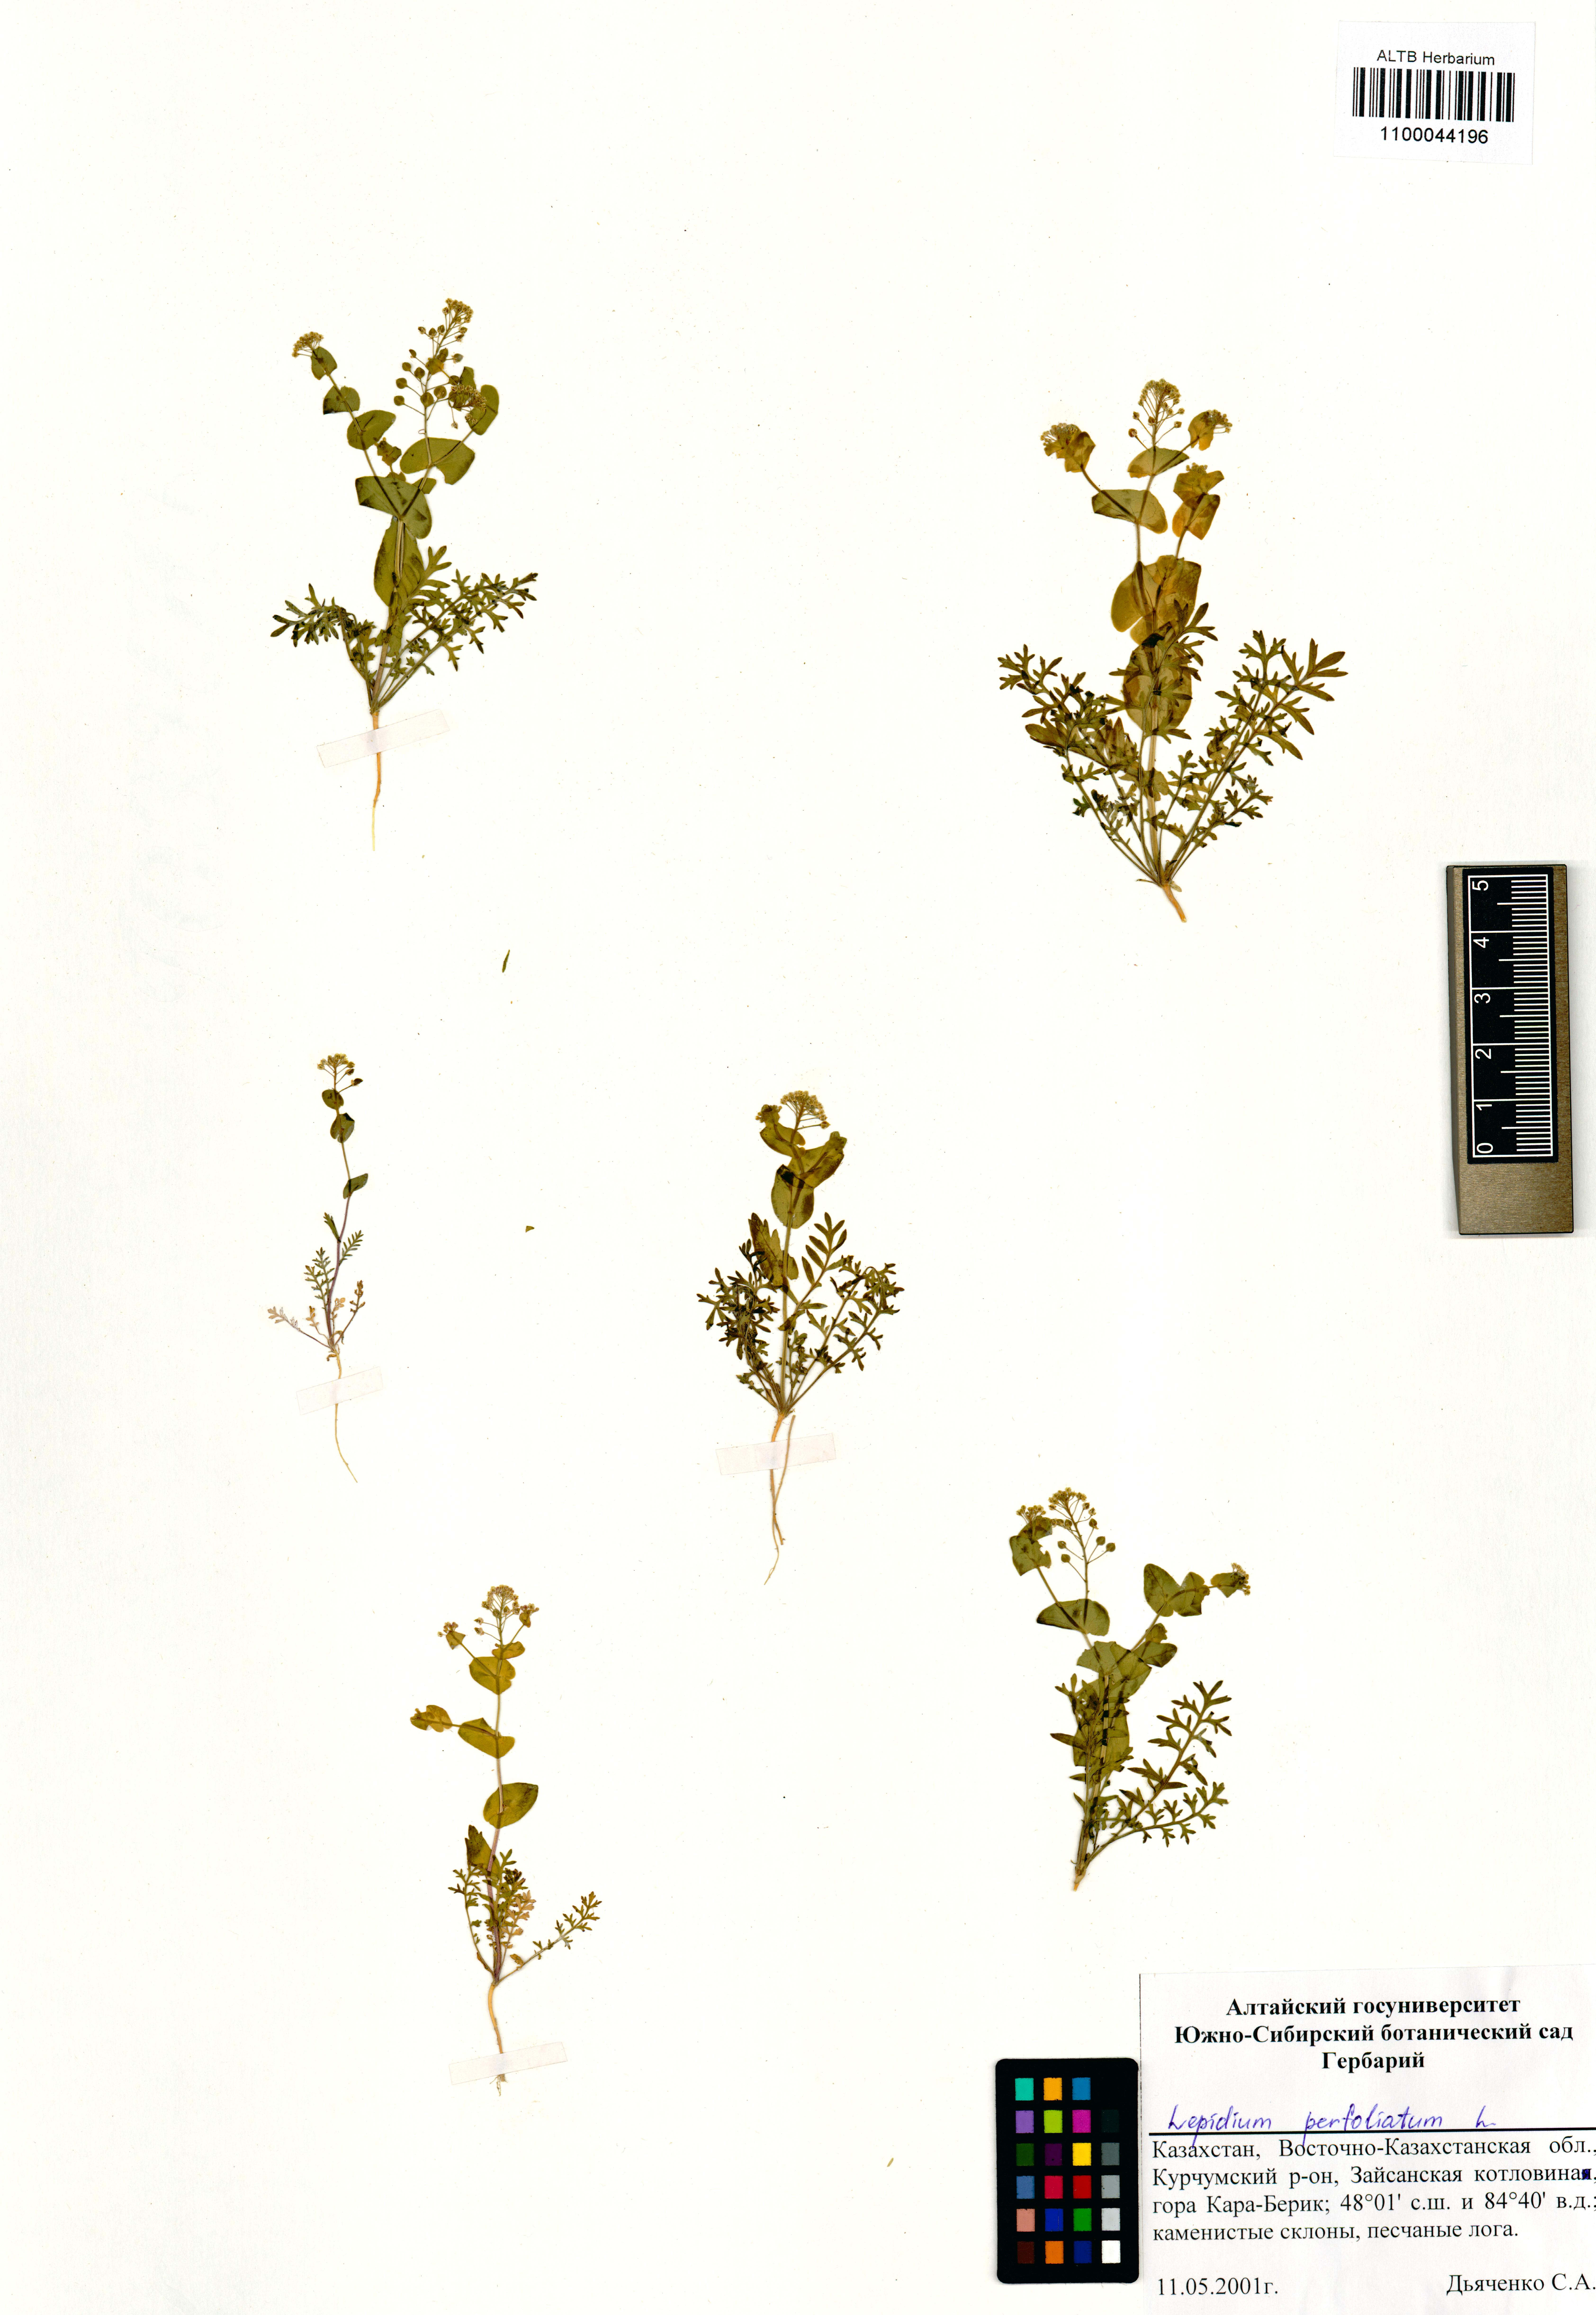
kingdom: Plantae
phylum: Tracheophyta
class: Magnoliopsida
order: Brassicales
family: Brassicaceae
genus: Lepidium
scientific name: Lepidium perfoliatum
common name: Perfoliate pepperwort
